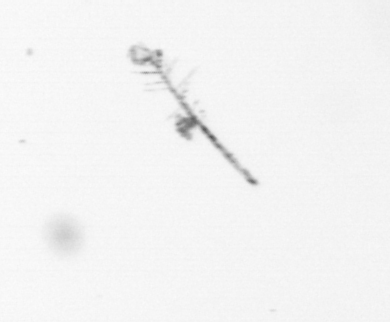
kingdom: Chromista
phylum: Ochrophyta
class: Bacillariophyceae
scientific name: Bacillariophyceae
